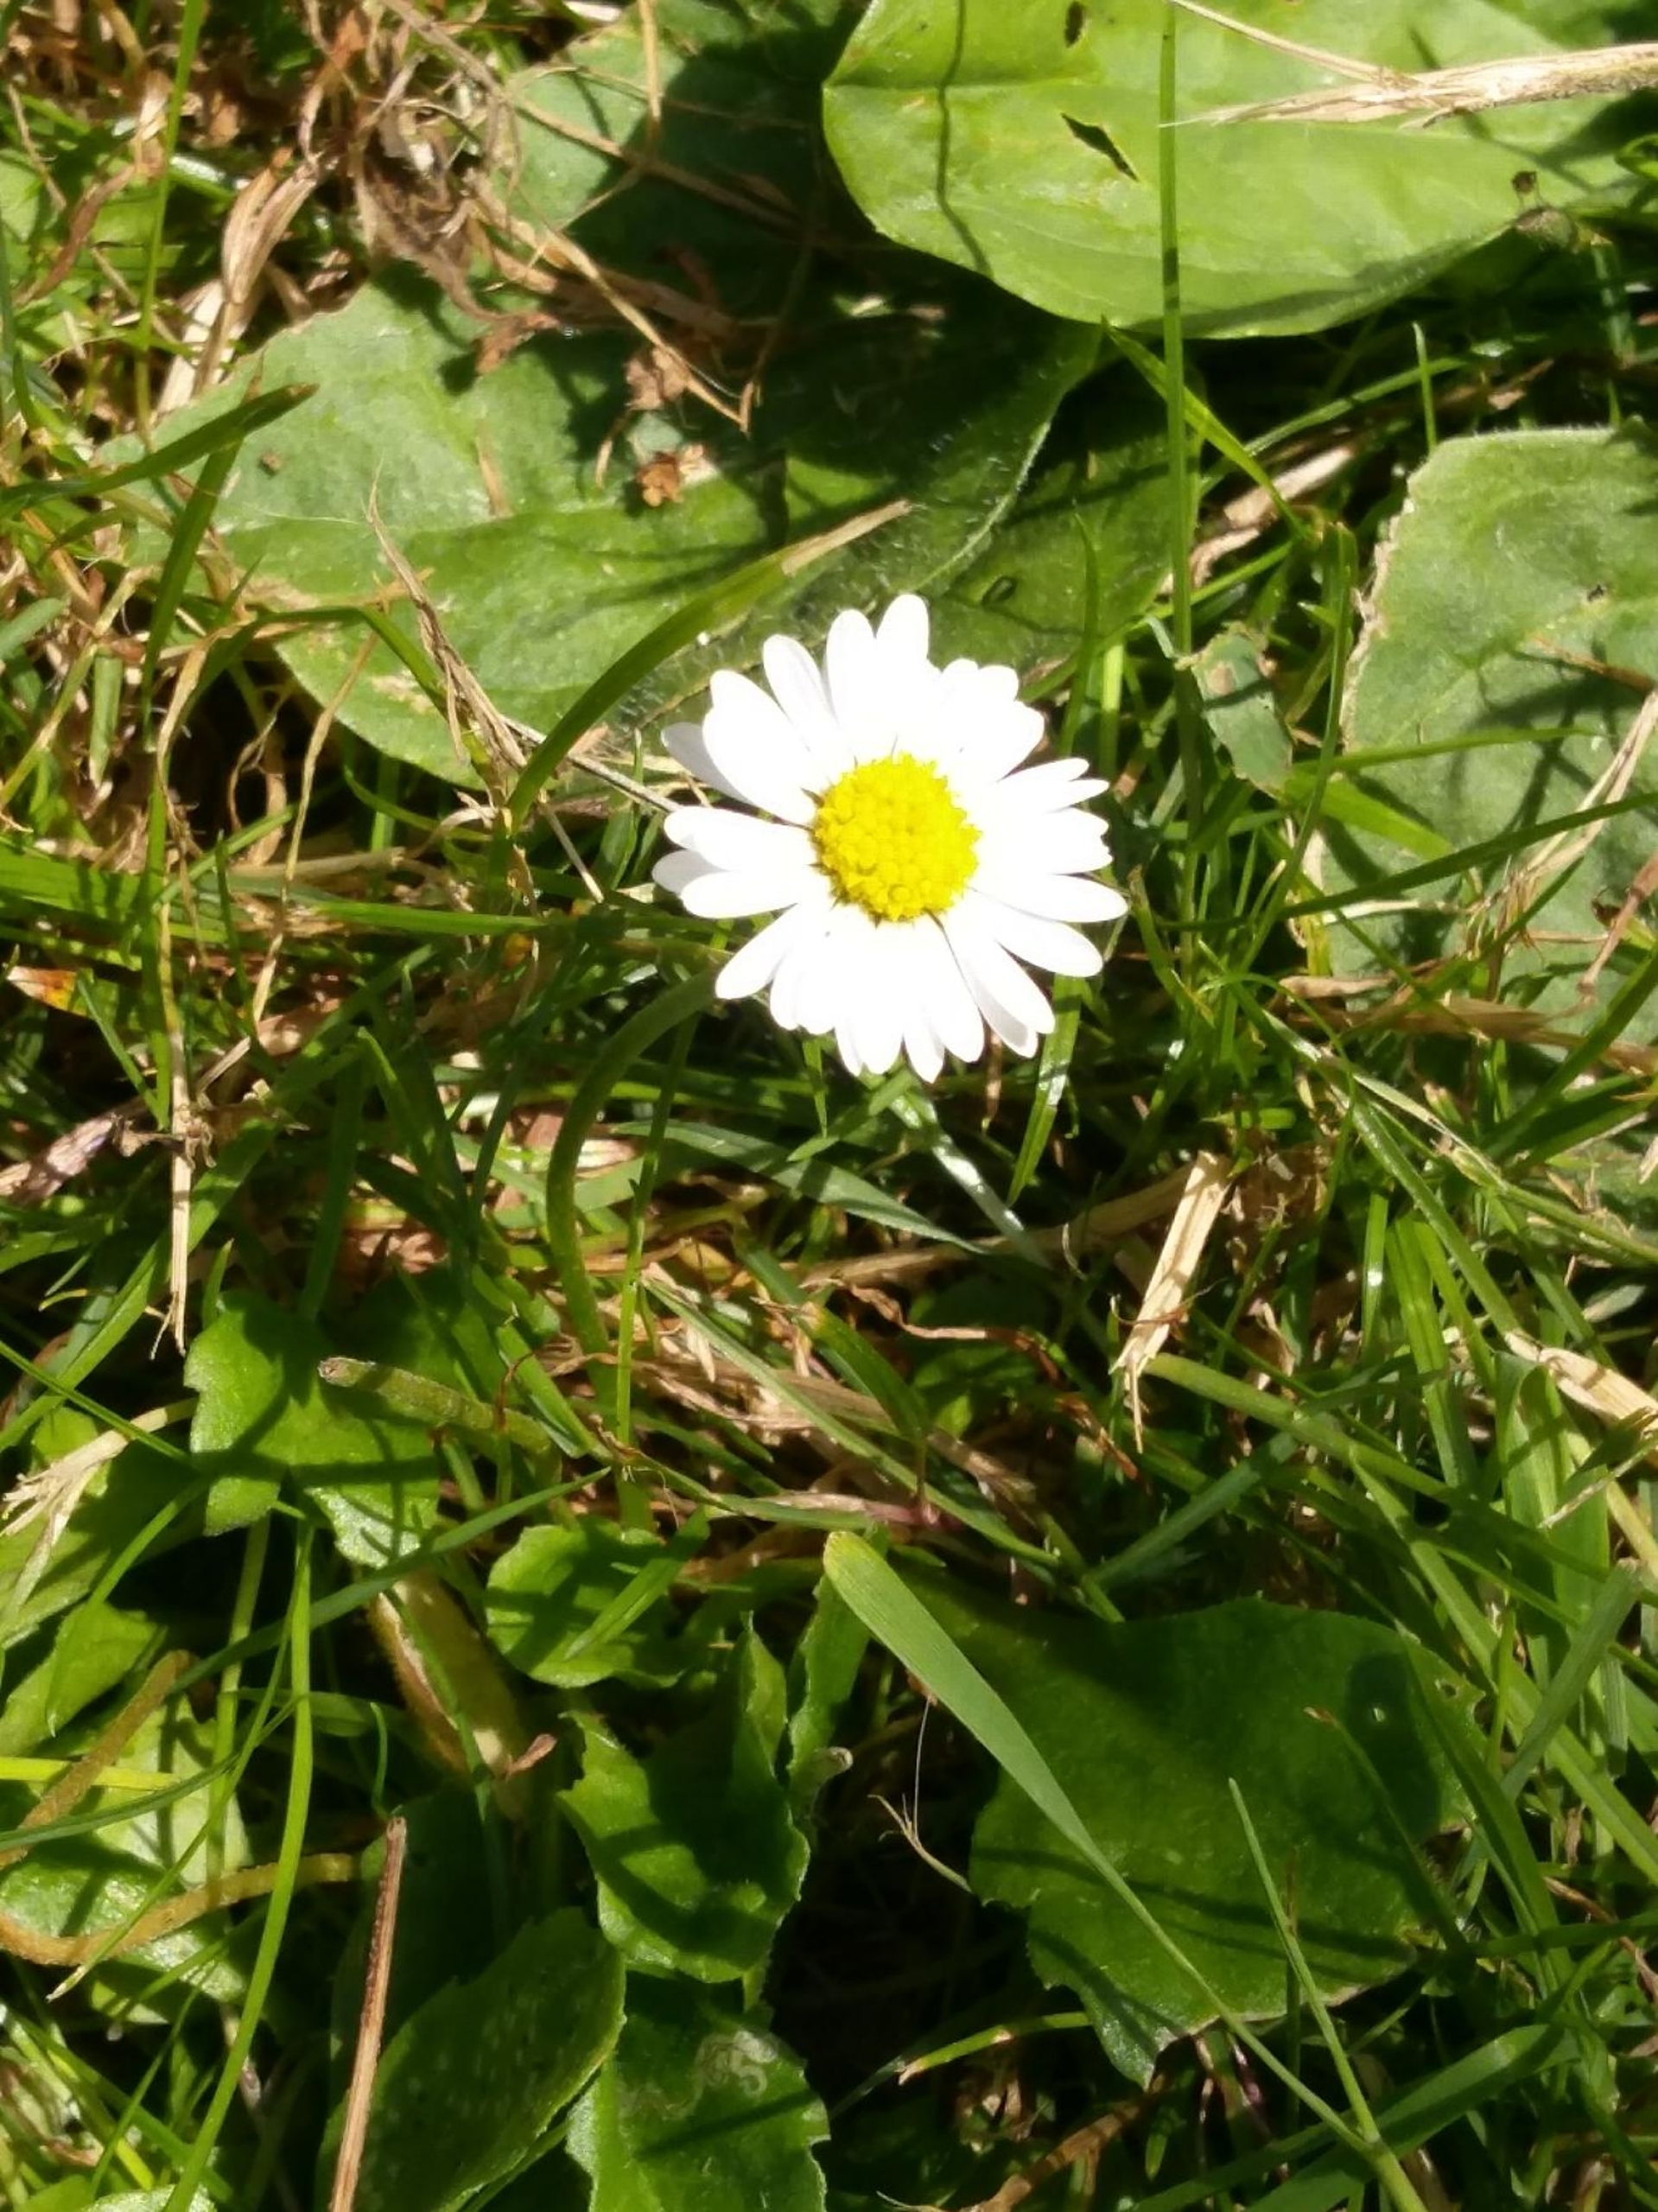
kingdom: Plantae
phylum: Tracheophyta
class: Magnoliopsida
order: Asterales
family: Asteraceae
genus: Bellis
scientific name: Bellis perennis
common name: Tusindfryd
